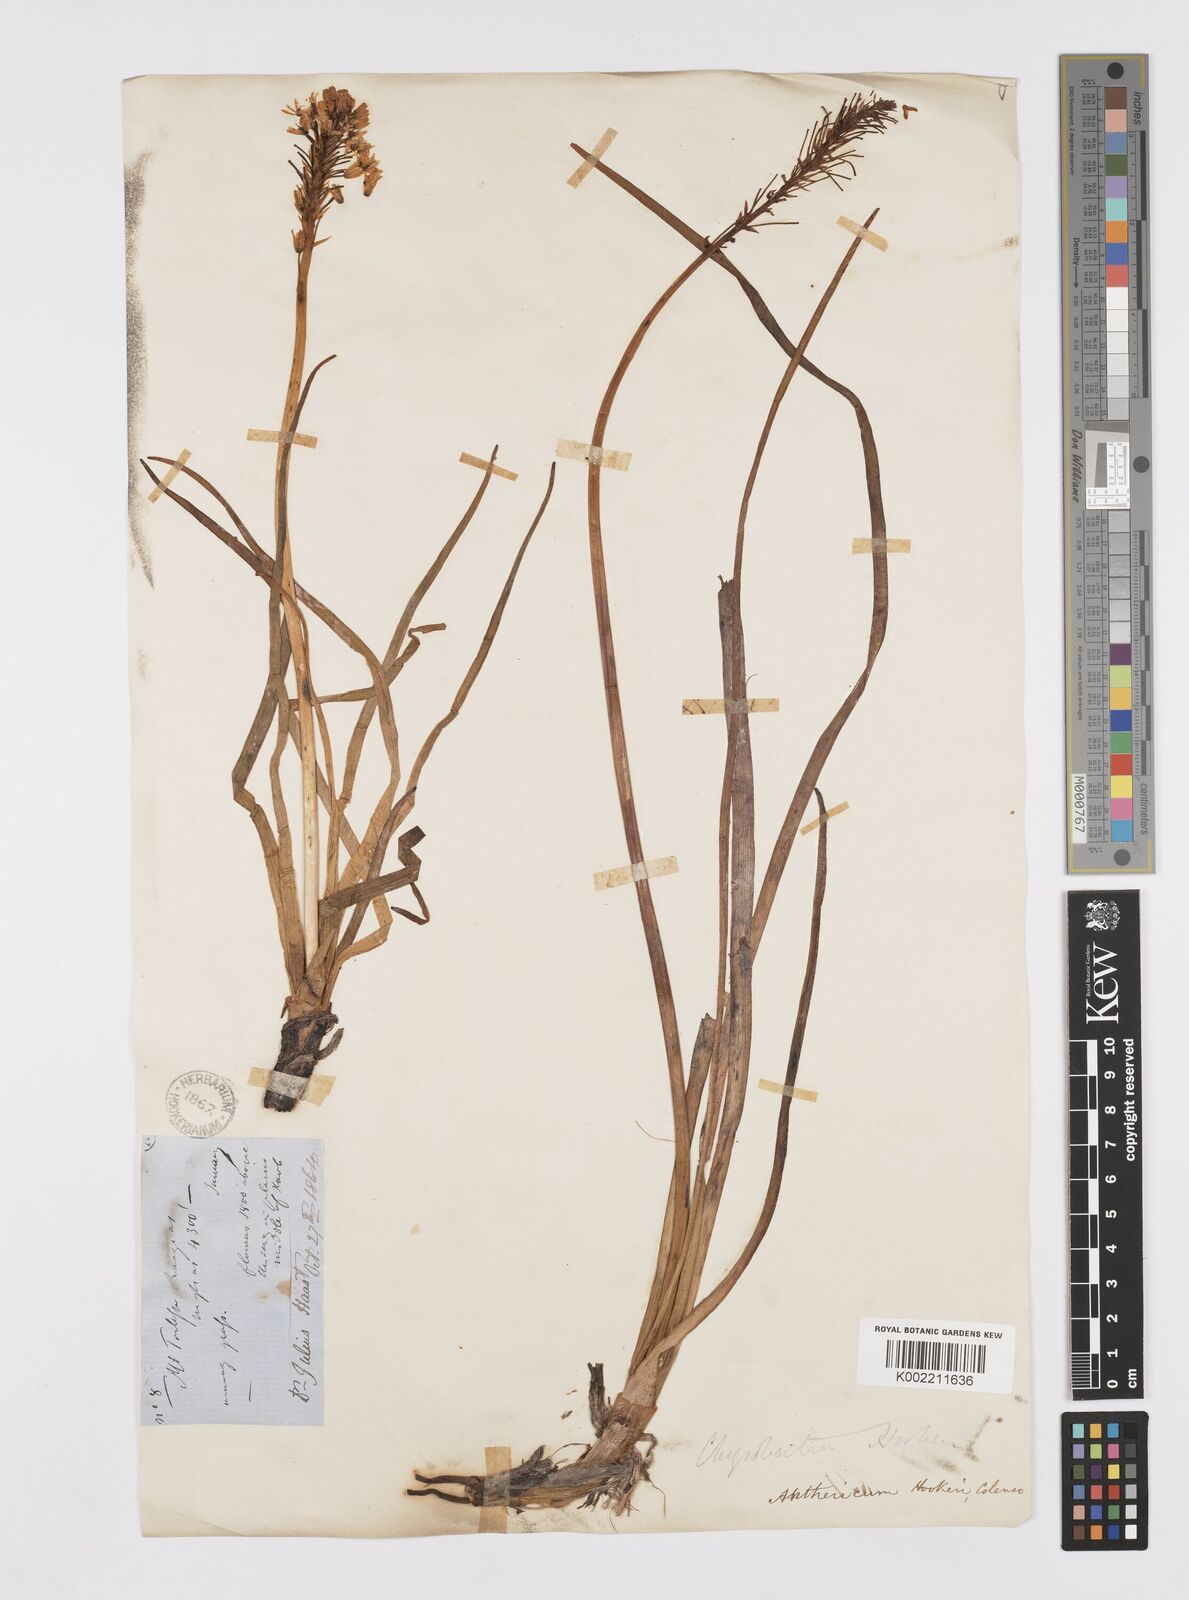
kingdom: Plantae
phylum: Tracheophyta
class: Liliopsida
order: Asparagales
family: Asphodelaceae
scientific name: Asphodelaceae
